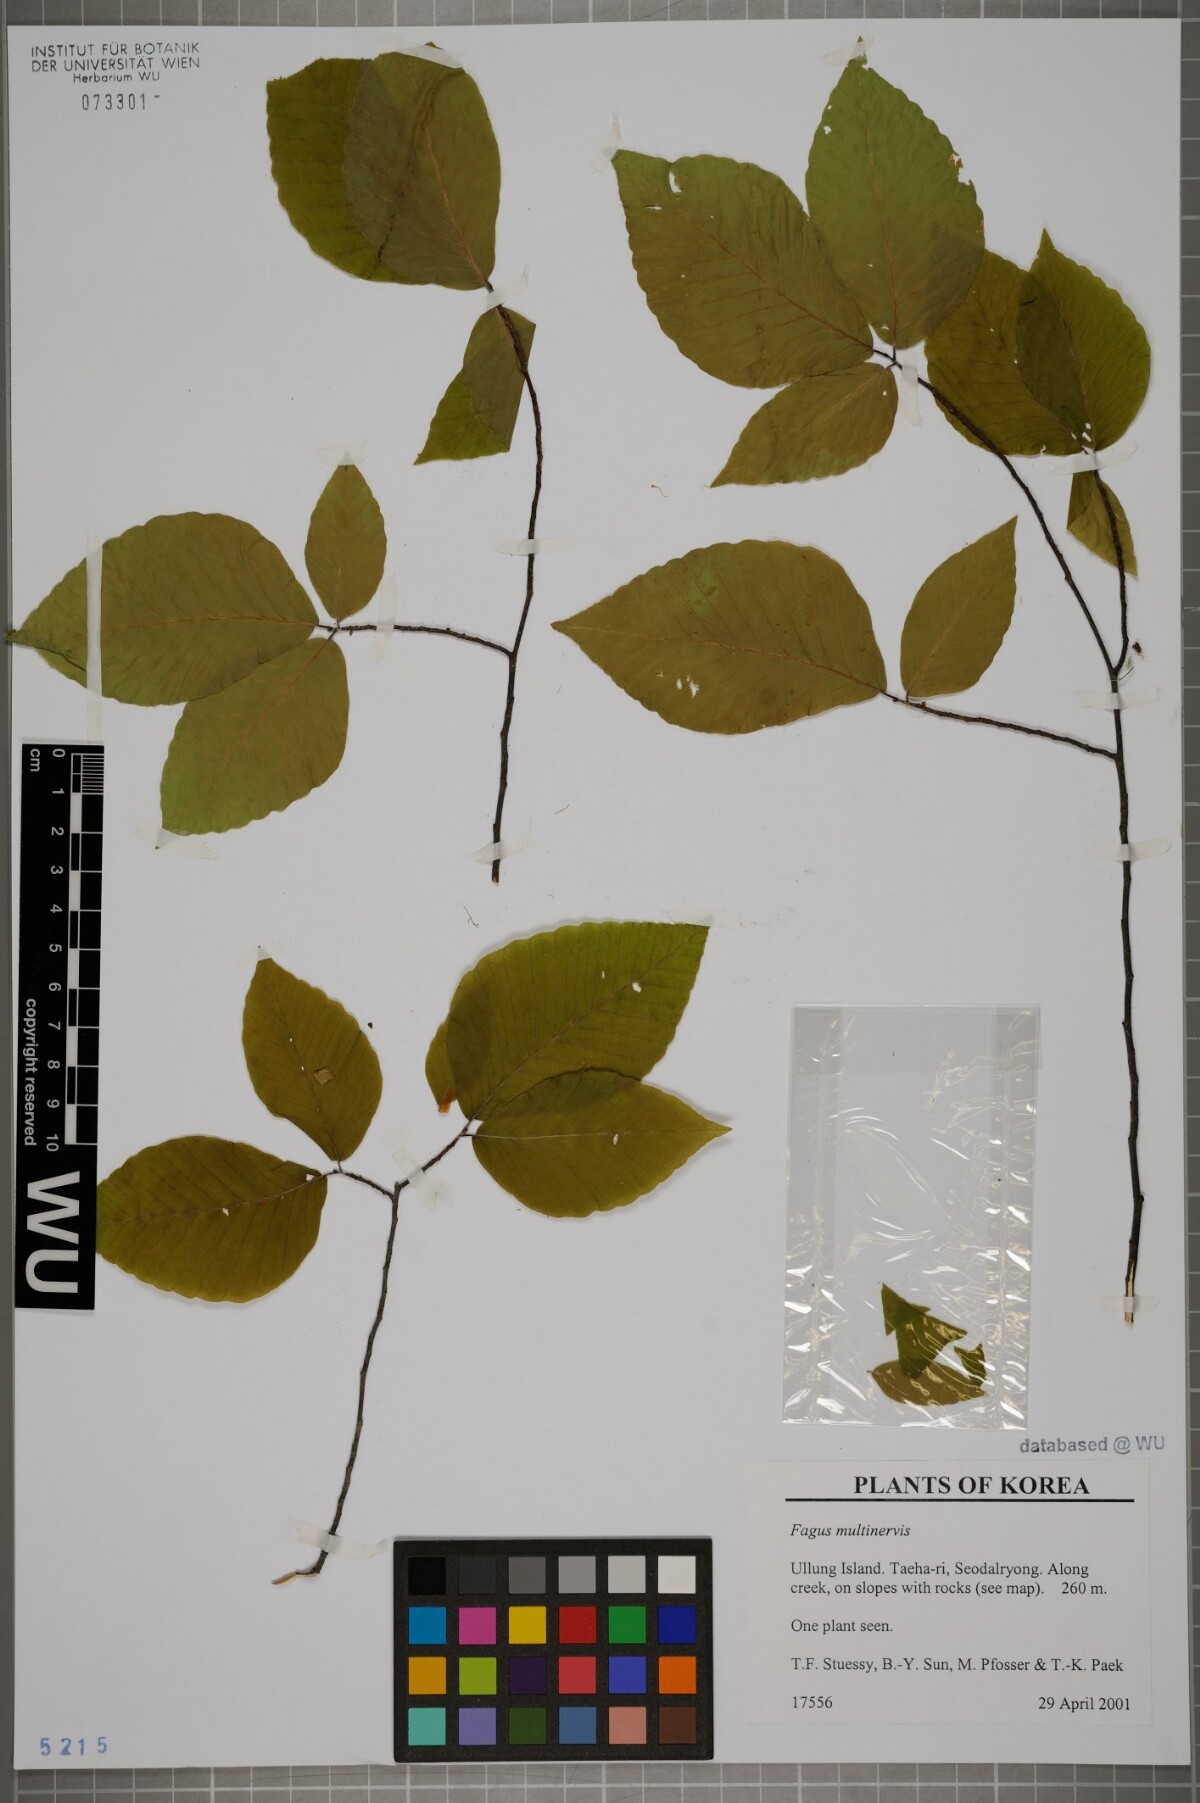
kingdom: Plantae
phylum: Tracheophyta
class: Magnoliopsida
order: Fagales
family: Fagaceae
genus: Fagus
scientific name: Fagus multinervis
